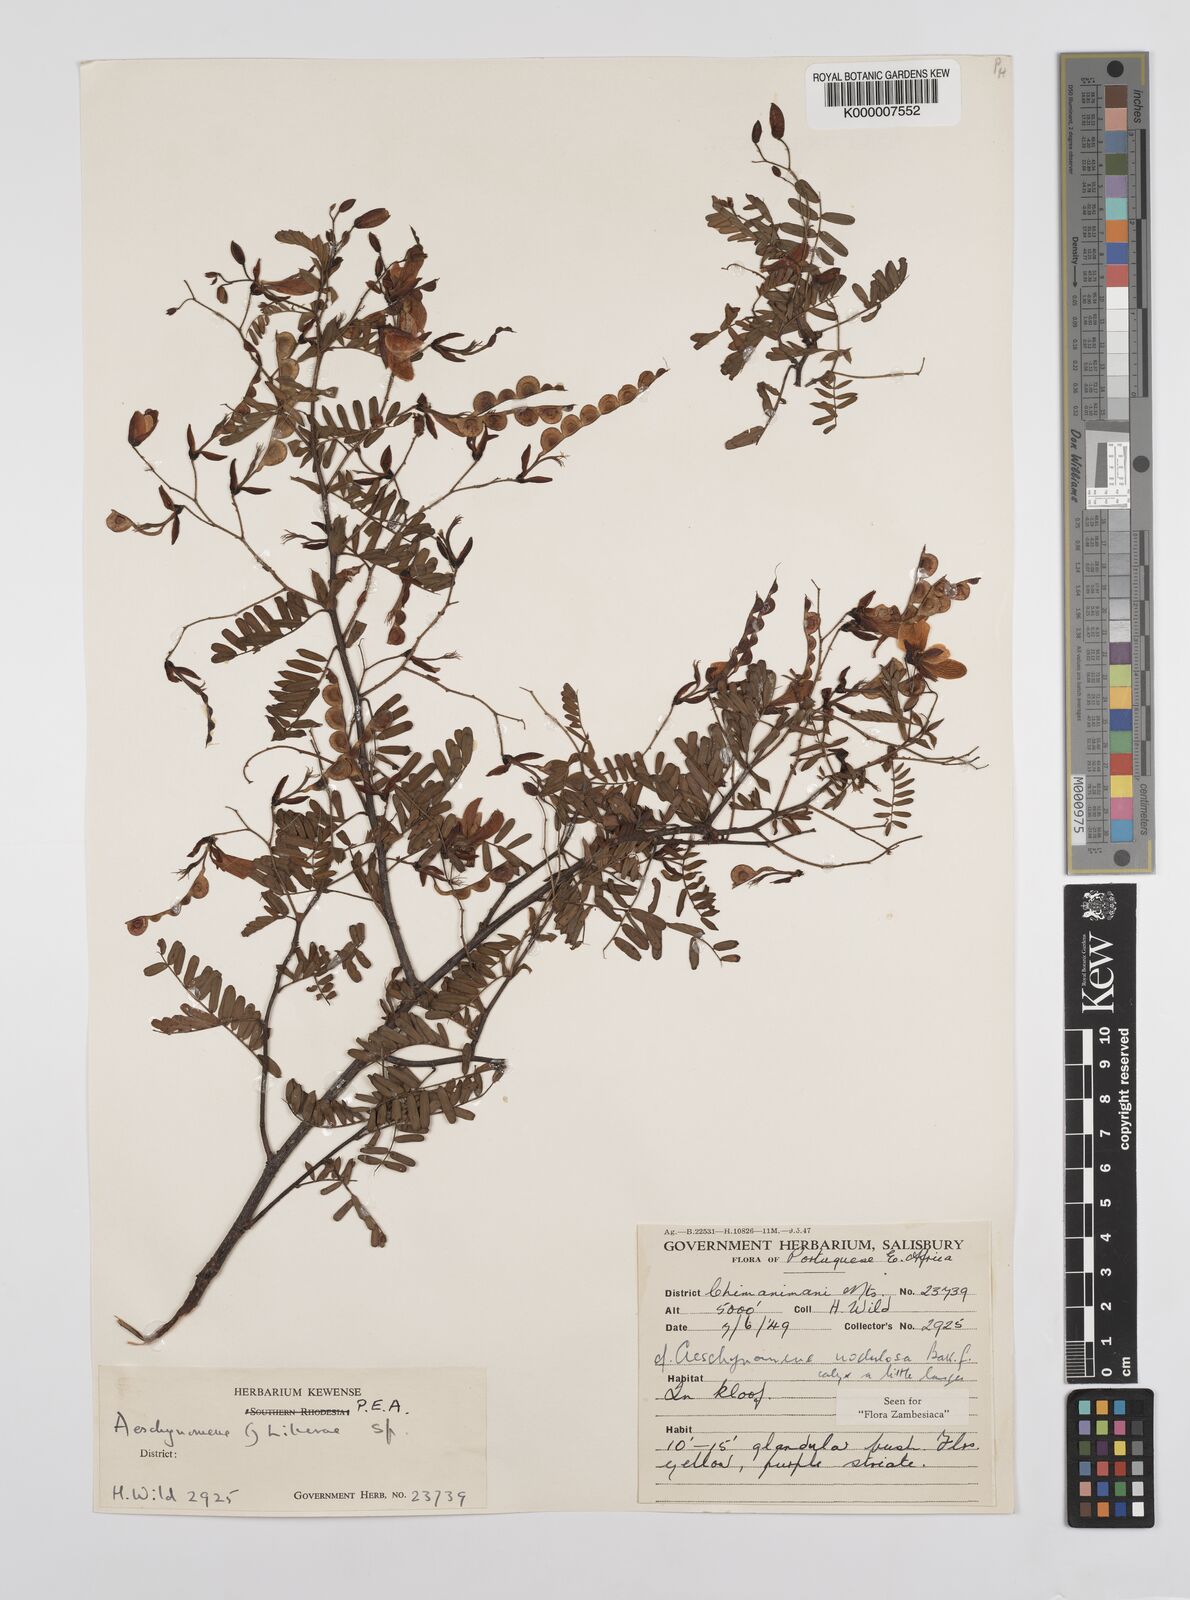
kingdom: Plantae
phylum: Tracheophyta
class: Magnoliopsida
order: Fabales
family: Fabaceae
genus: Aeschynomene
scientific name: Aeschynomene nodulosa
